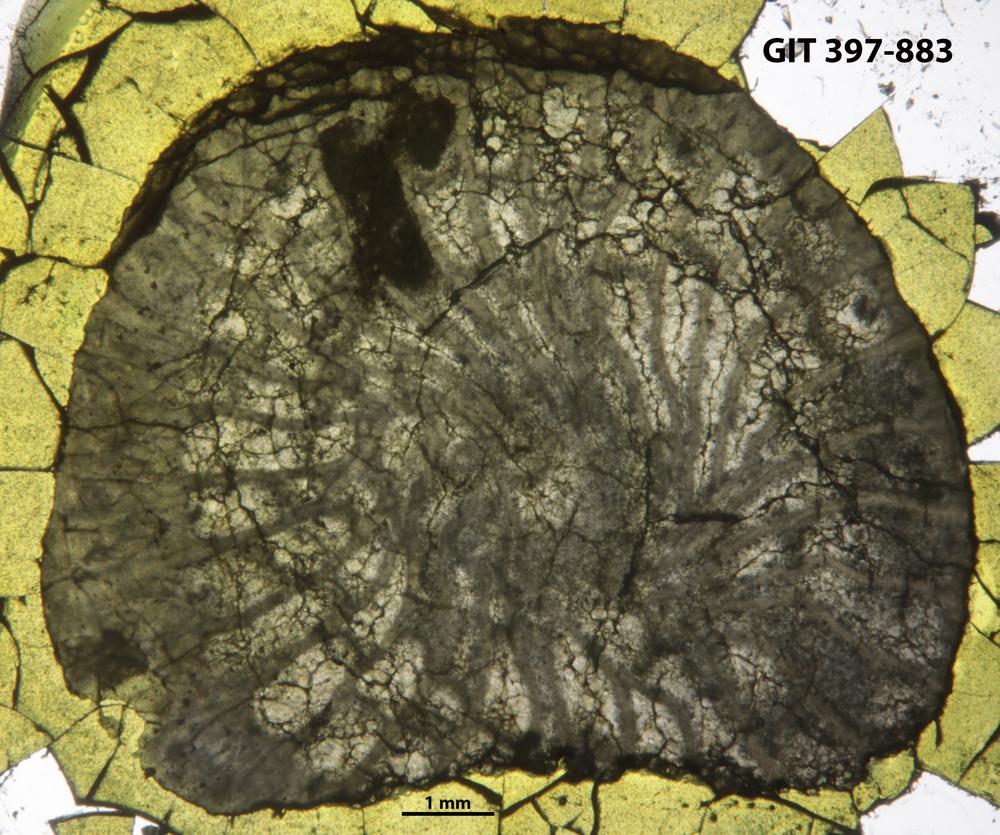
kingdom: Animalia
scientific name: Animalia
